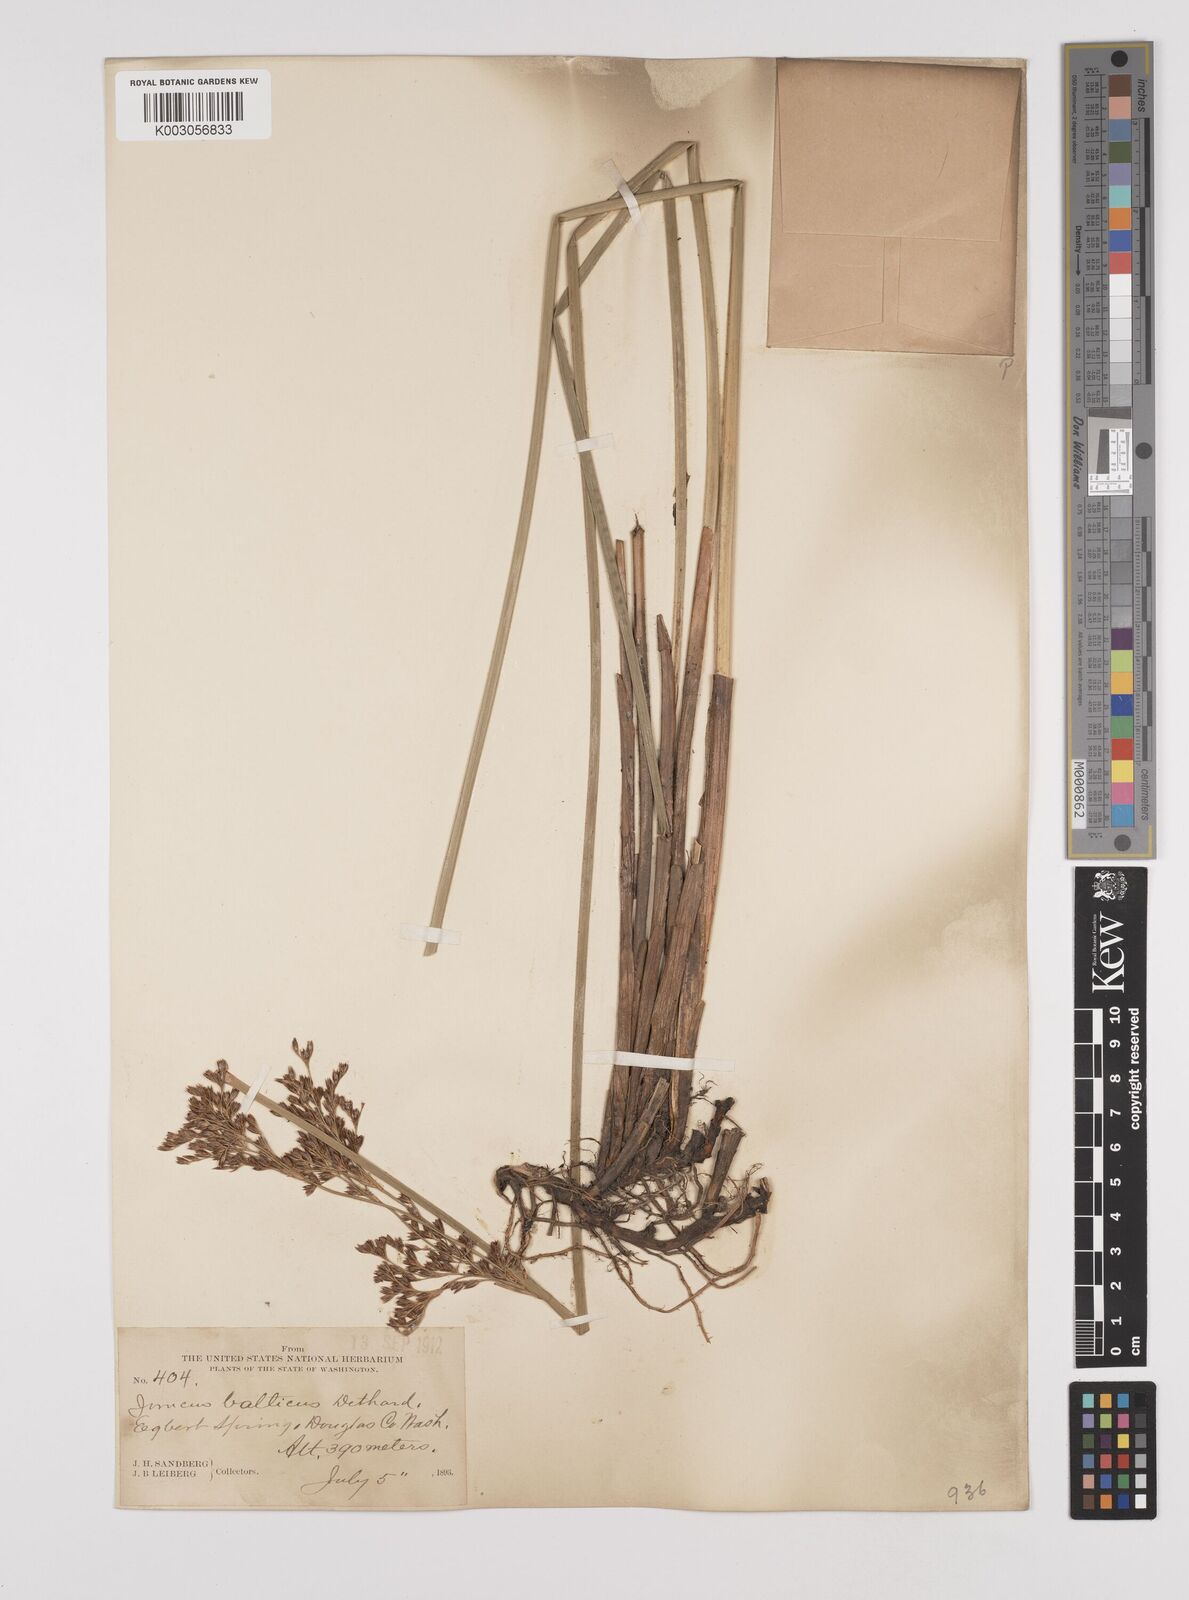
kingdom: Plantae
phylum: Tracheophyta
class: Liliopsida
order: Poales
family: Juncaceae
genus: Juncus
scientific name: Juncus balticus
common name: Baltic rush
